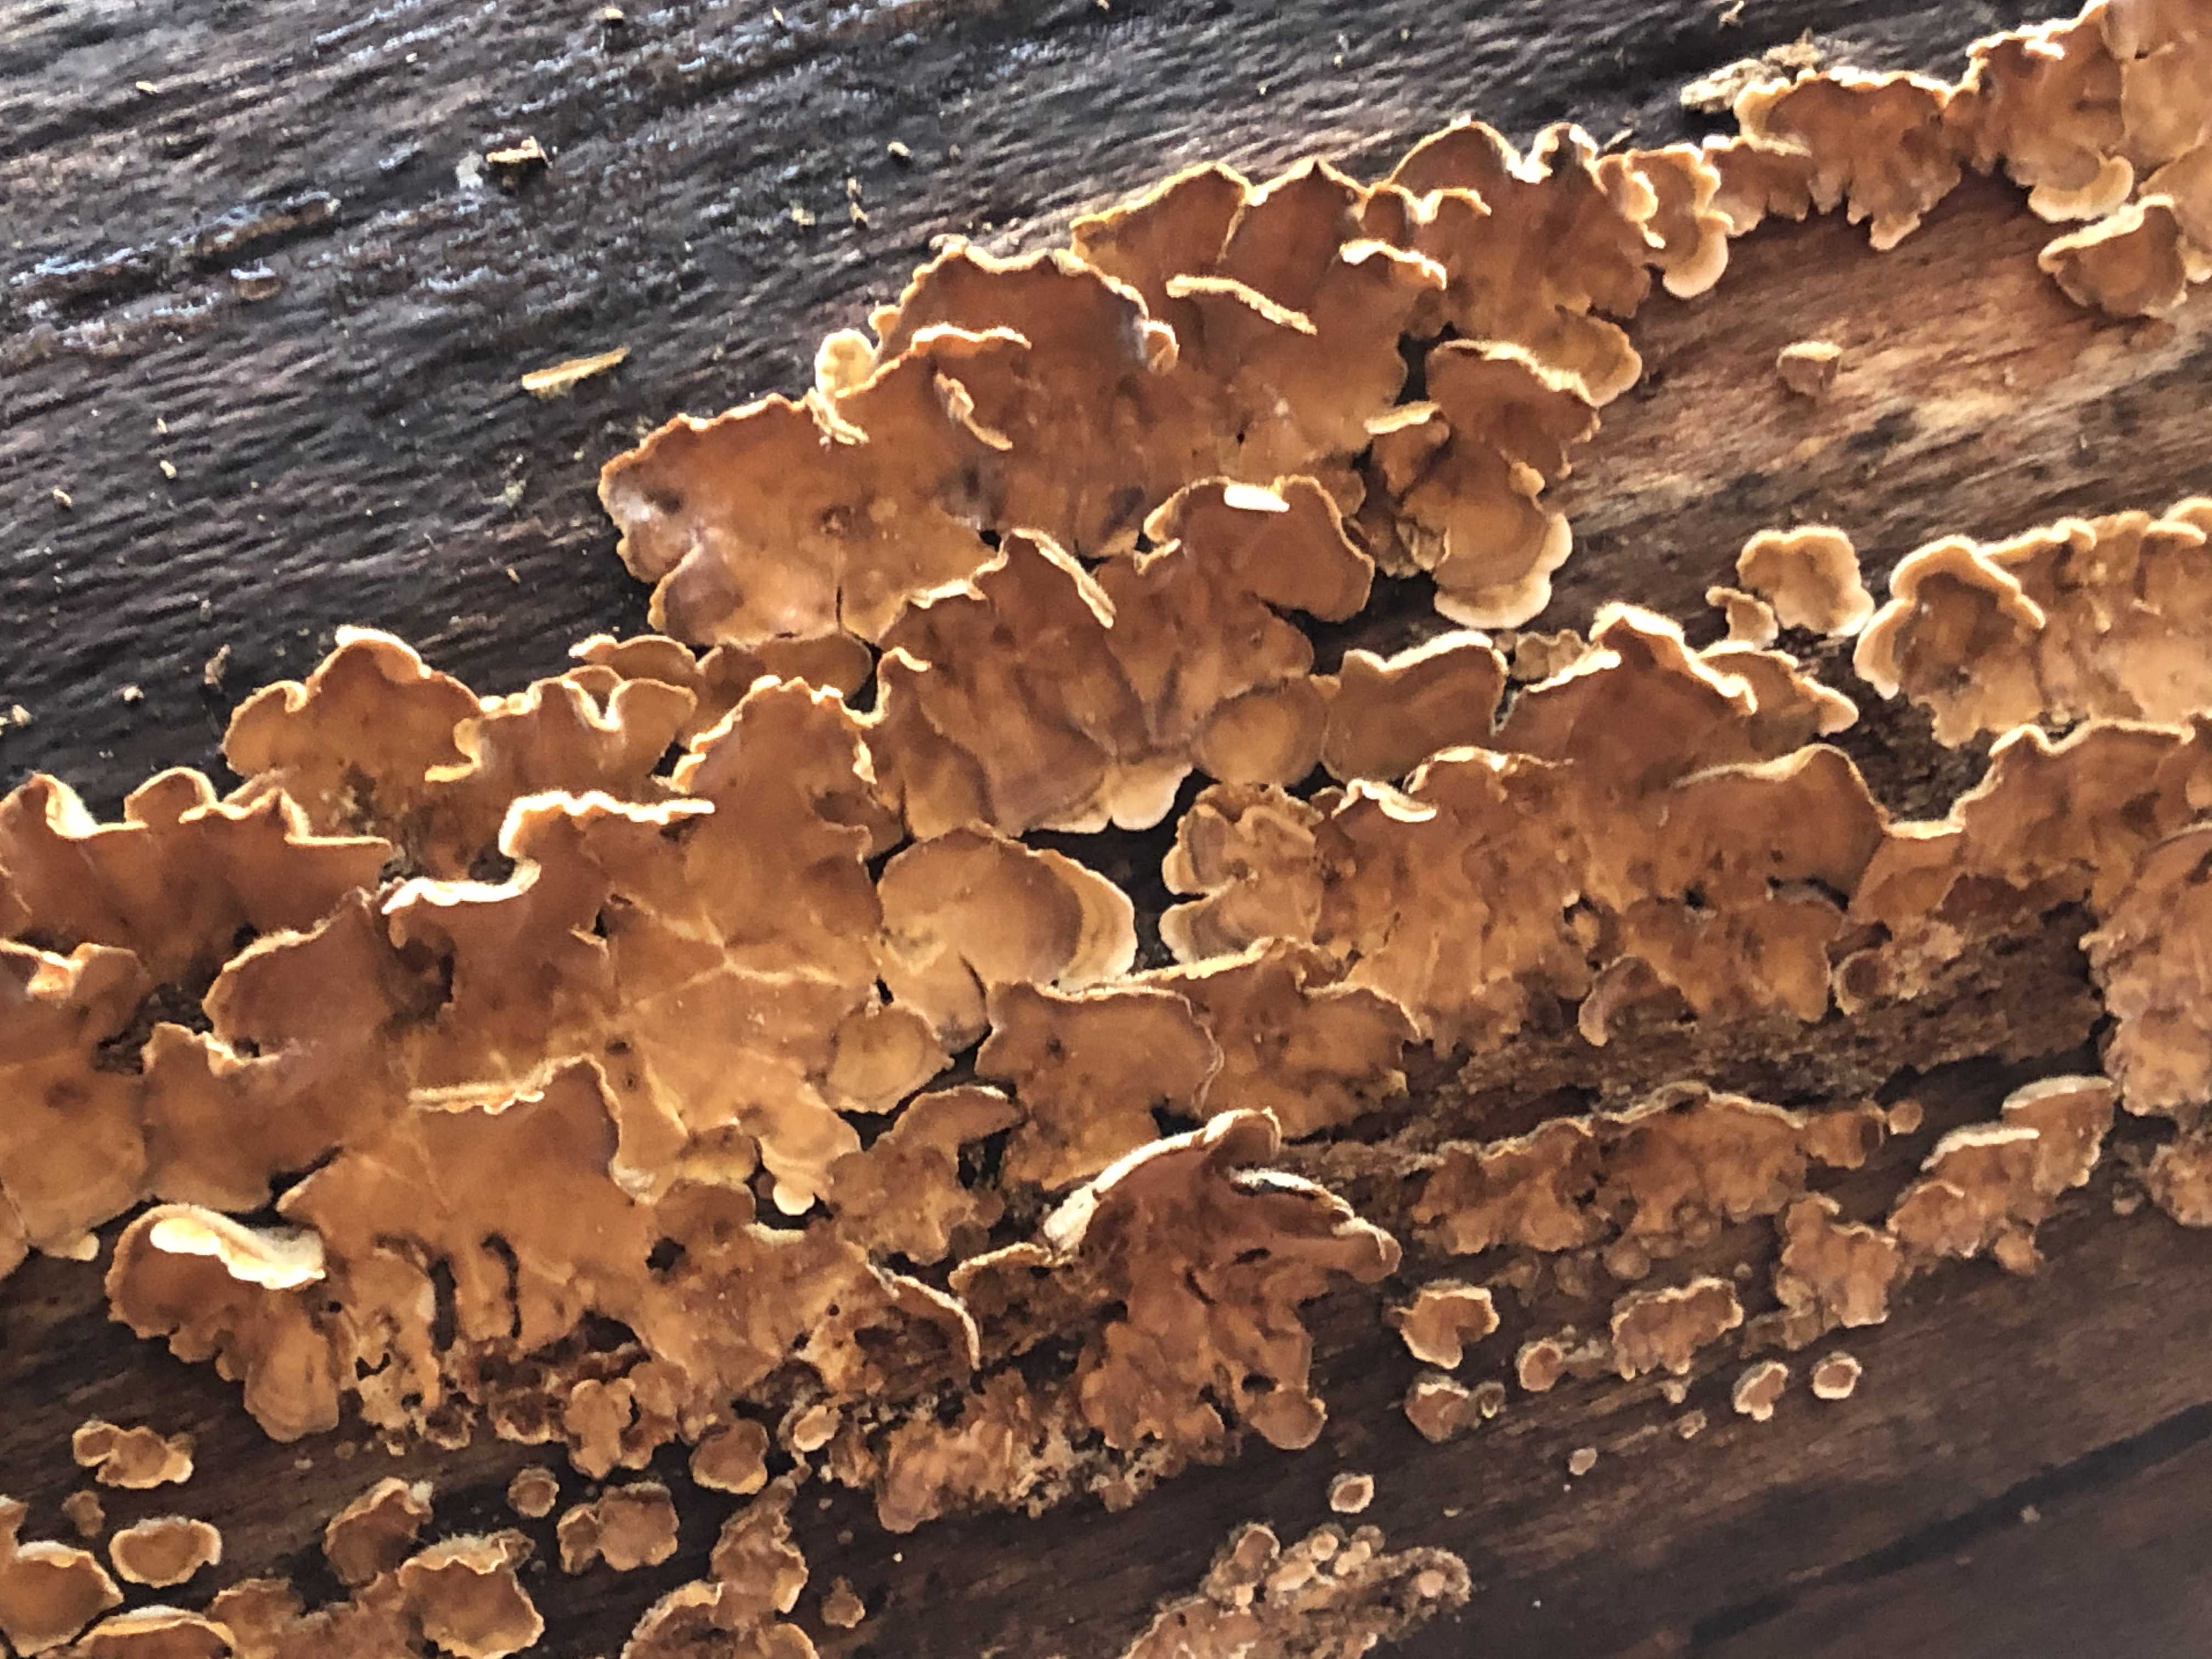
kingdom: Fungi
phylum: Basidiomycota
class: Agaricomycetes
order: Russulales
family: Stereaceae
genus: Stereum
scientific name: Stereum hirsutum
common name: håret lædersvamp
